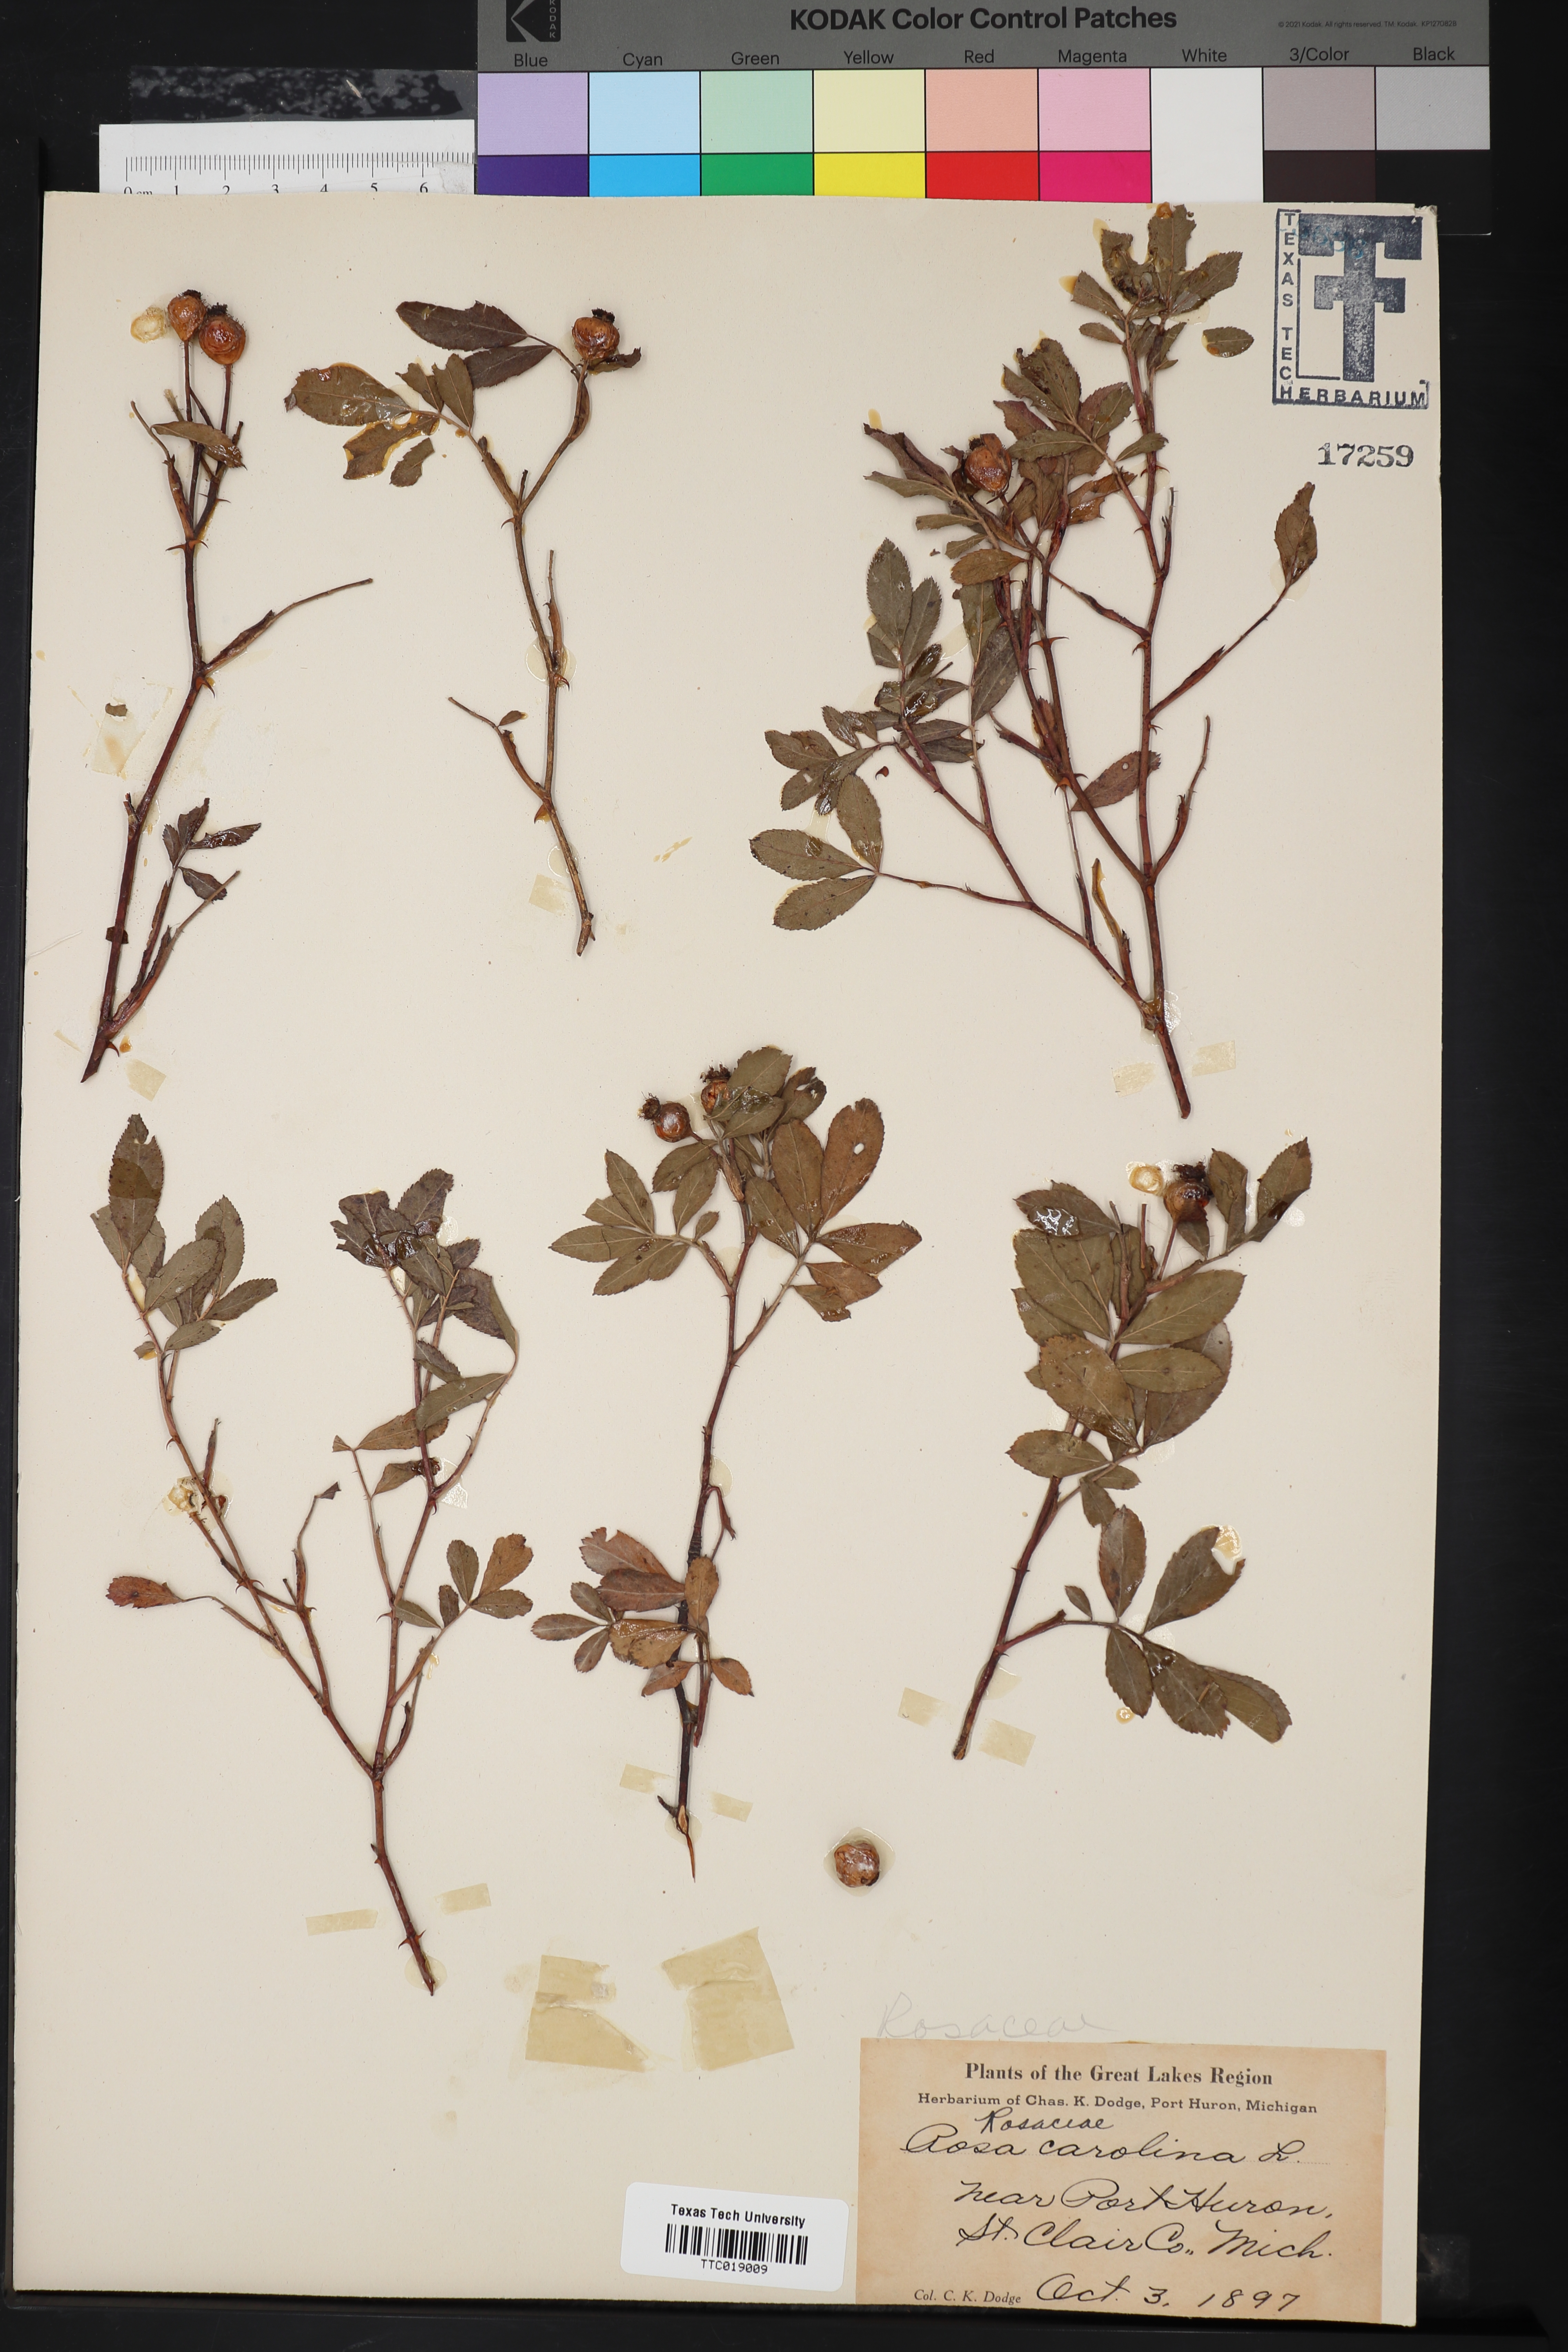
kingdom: Plantae
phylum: Tracheophyta
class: Magnoliopsida
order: Rosales
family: Rosaceae
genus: Rosa
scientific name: Rosa rubiginosa
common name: Sweet-briar
